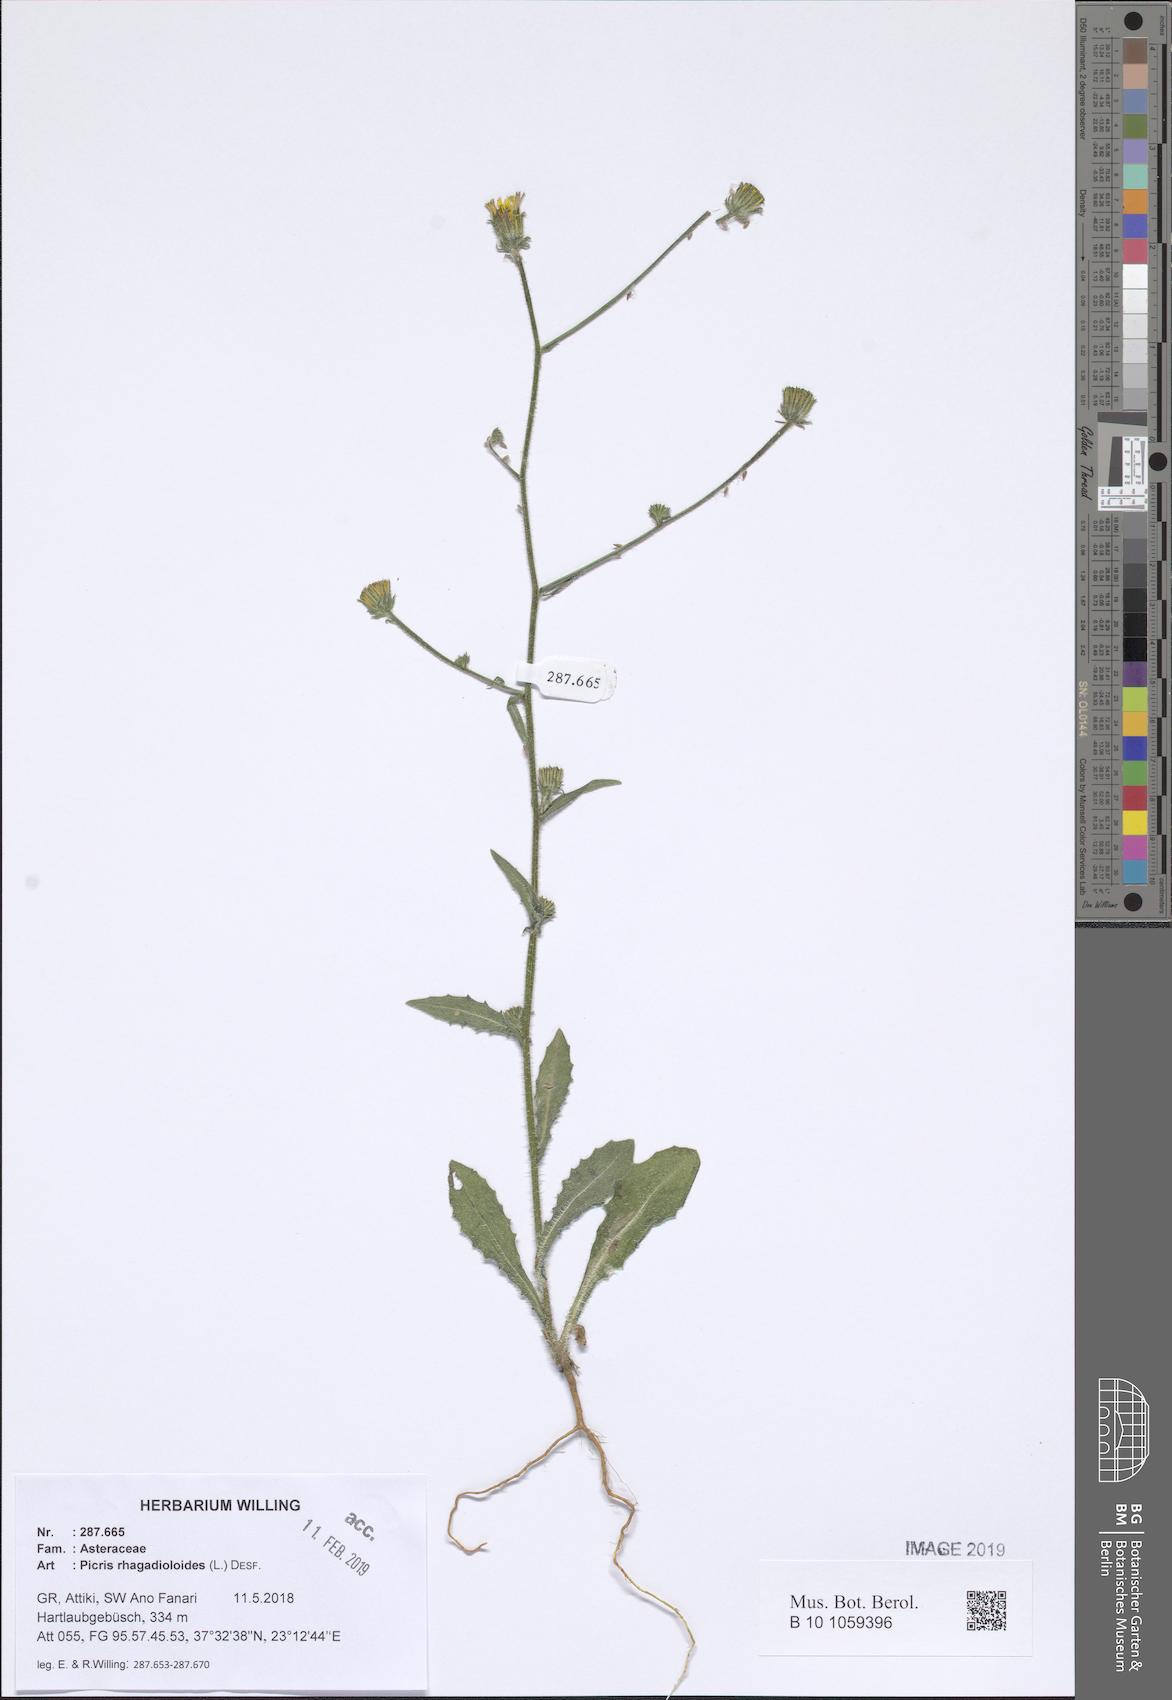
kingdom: Plantae
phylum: Tracheophyta
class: Magnoliopsida
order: Asterales
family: Asteraceae
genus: Picris
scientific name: Picris rhagadioloides
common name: Oxtongue
